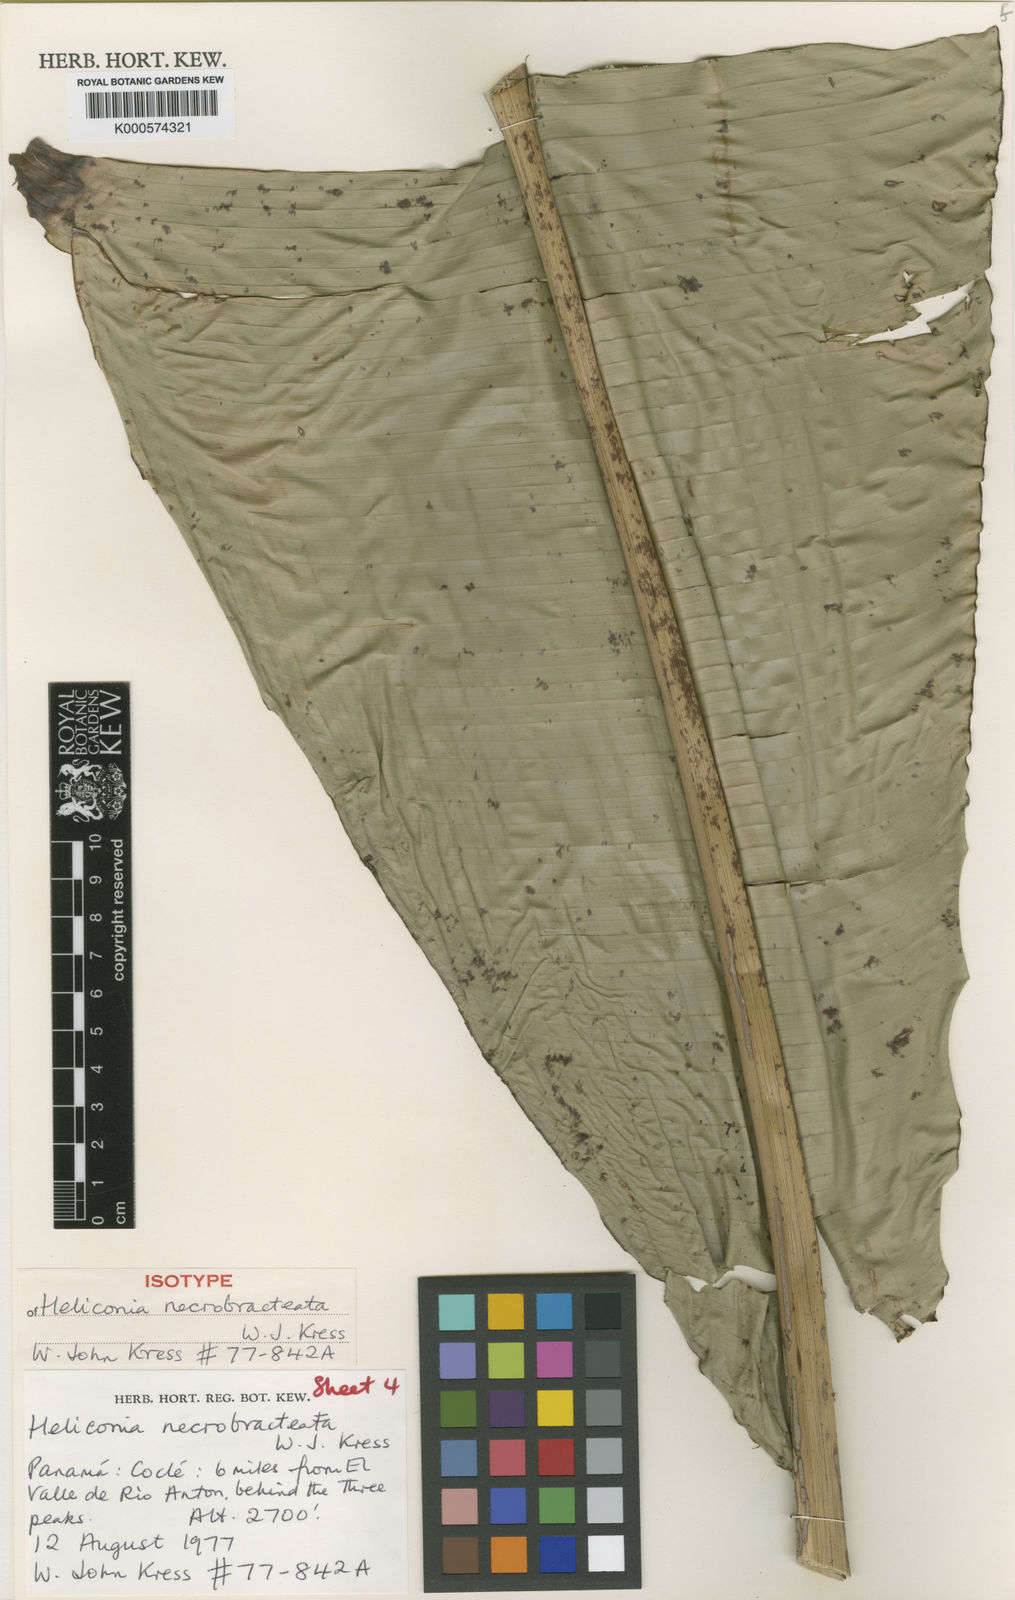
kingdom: Plantae
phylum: Tracheophyta
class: Liliopsida
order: Zingiberales
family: Heliconiaceae
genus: Heliconia
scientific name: Heliconia necrobracteata
